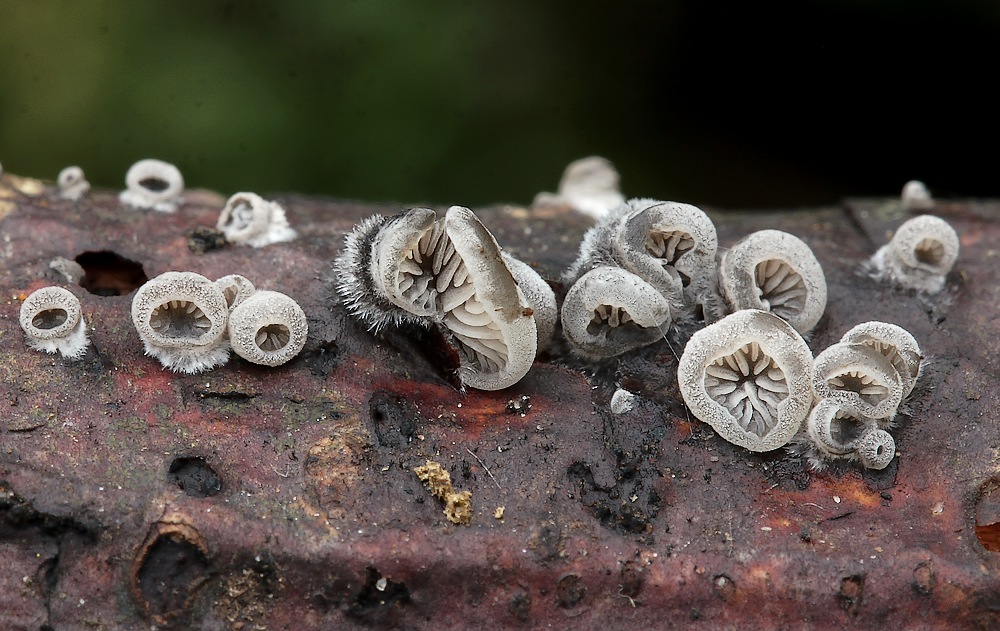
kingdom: Fungi
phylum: Basidiomycota
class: Agaricomycetes
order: Agaricales
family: Pleurotaceae
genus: Resupinatus
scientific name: Resupinatus applicatus
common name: lysfiltet barkhat
